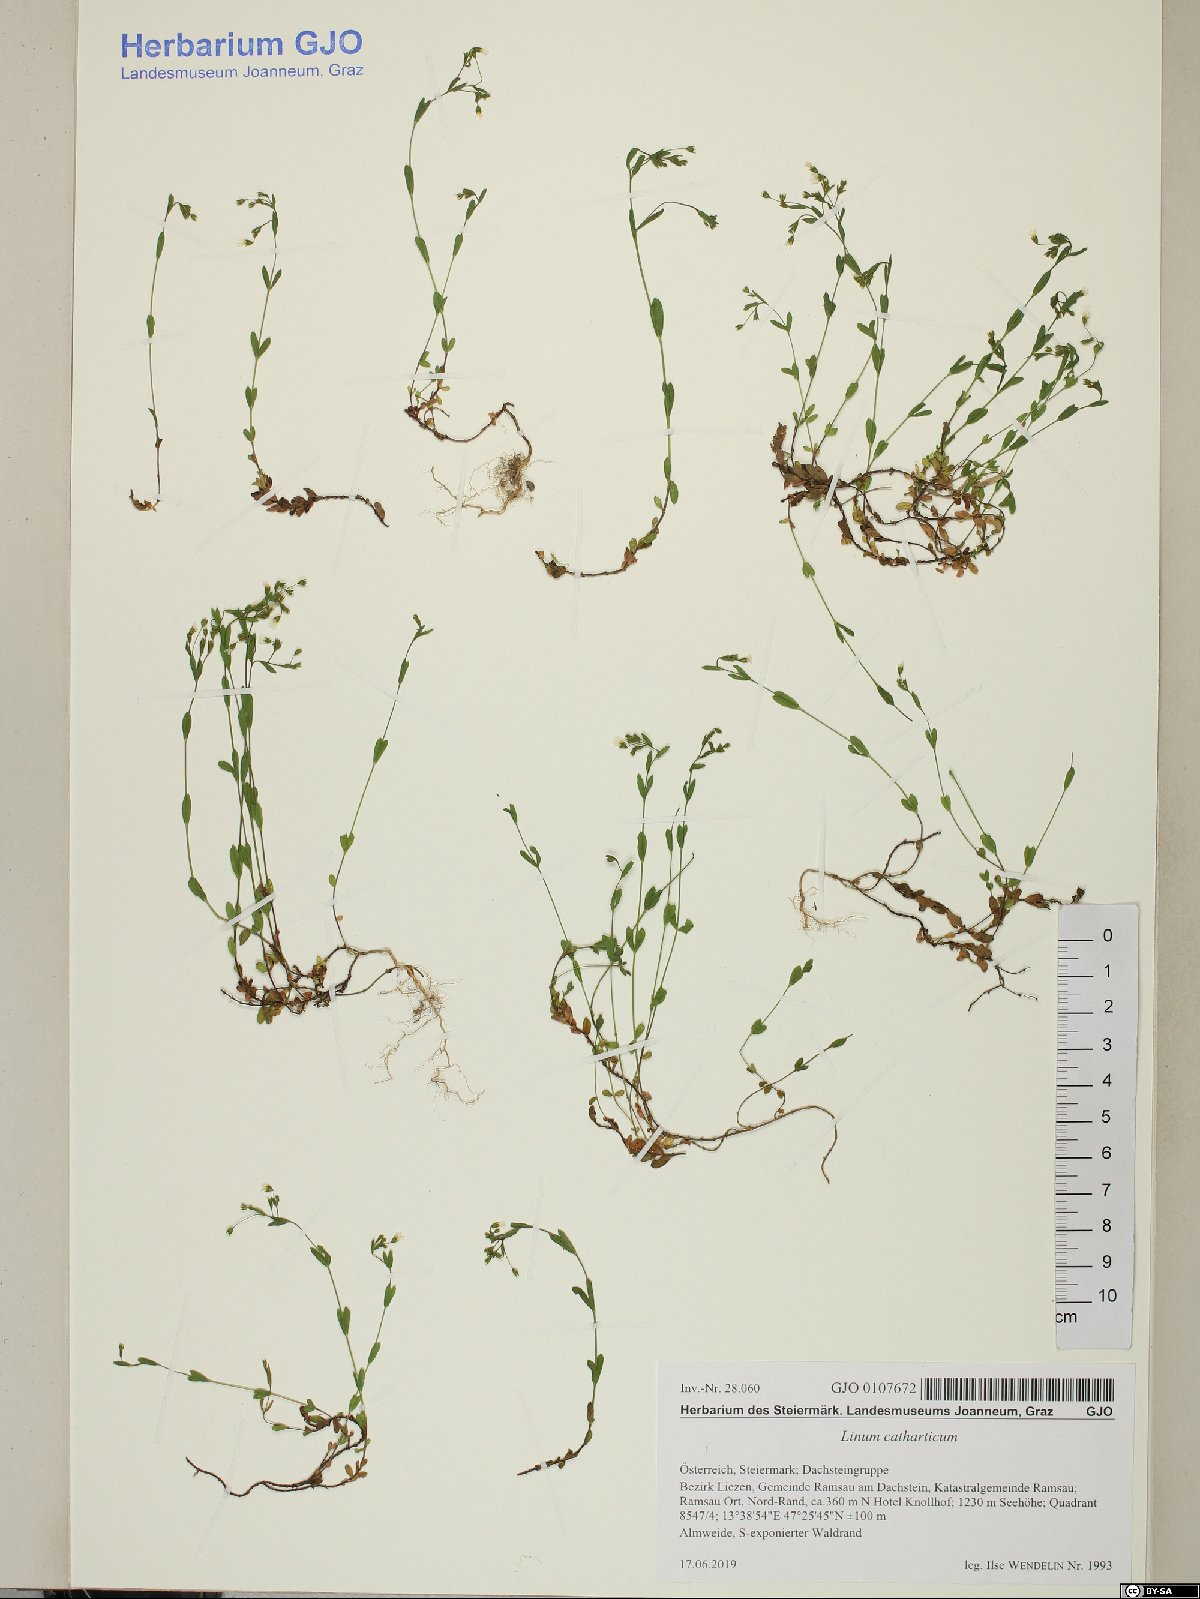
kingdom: Plantae
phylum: Tracheophyta
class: Magnoliopsida
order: Malpighiales
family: Linaceae
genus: Linum
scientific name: Linum catharticum
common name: Fairy flax
